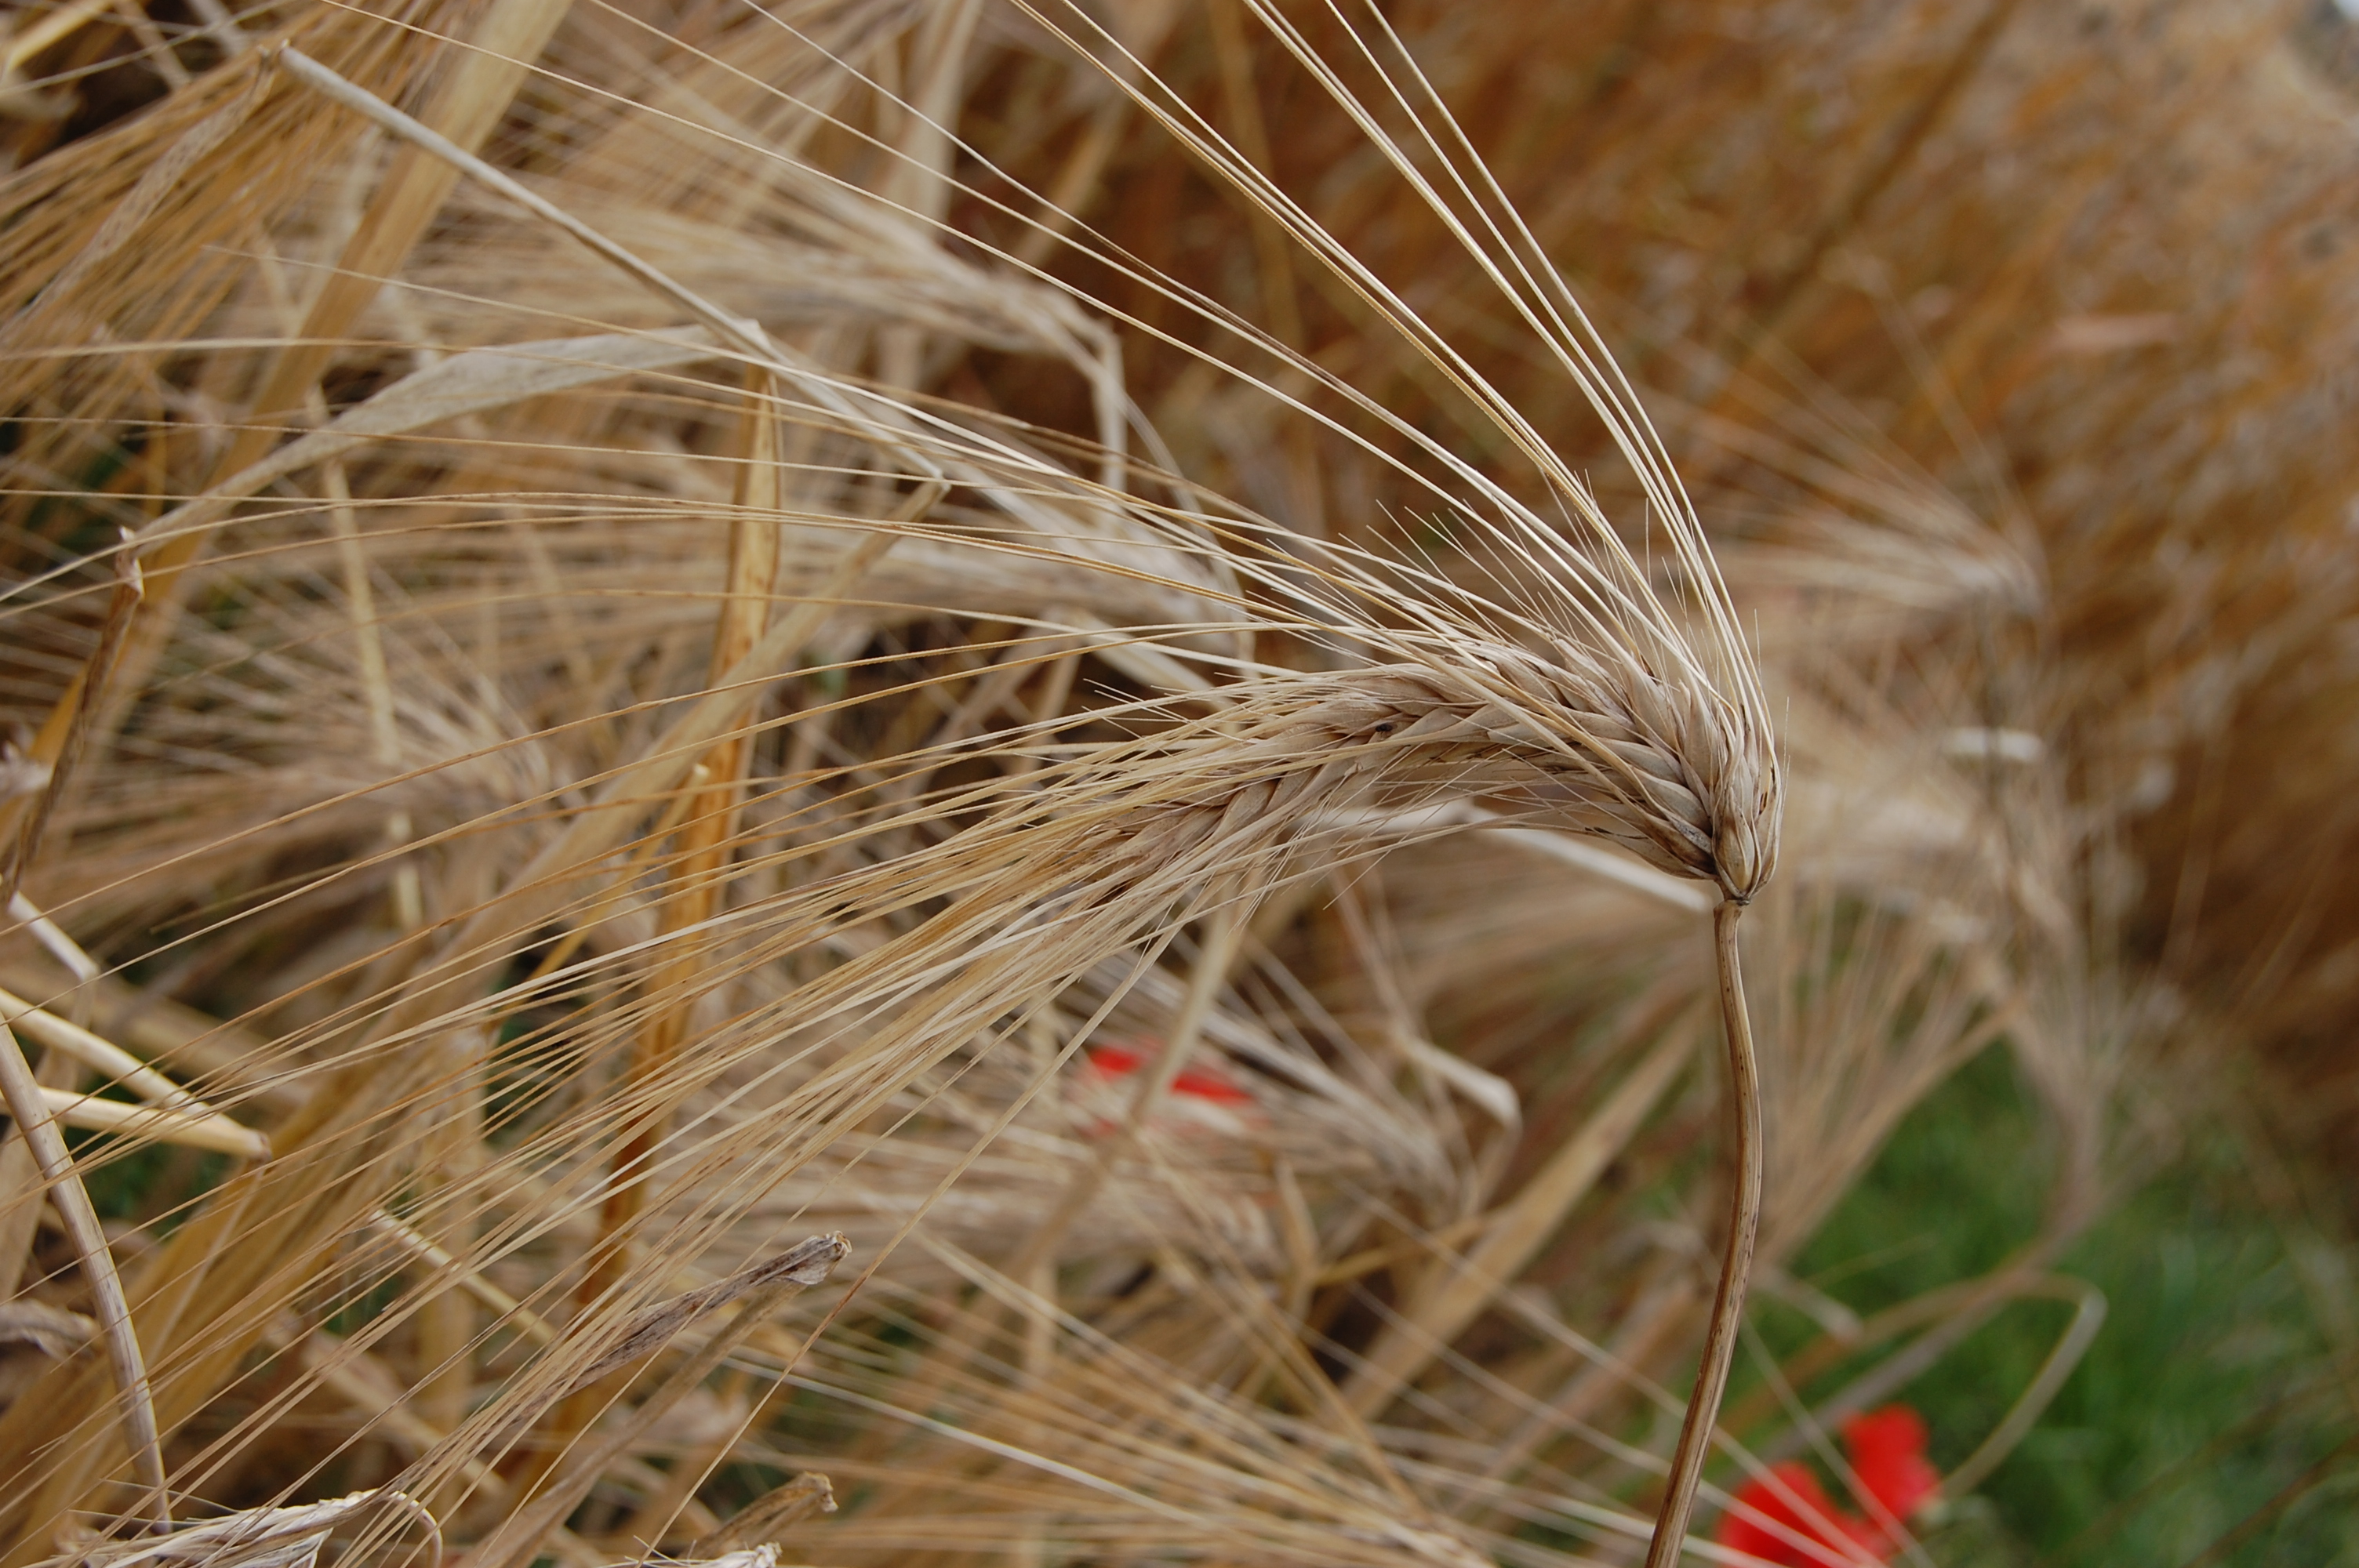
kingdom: Plantae
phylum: Tracheophyta
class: Liliopsida
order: Poales
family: Poaceae
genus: Hordeum
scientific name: Hordeum vulgare
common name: Common barley
